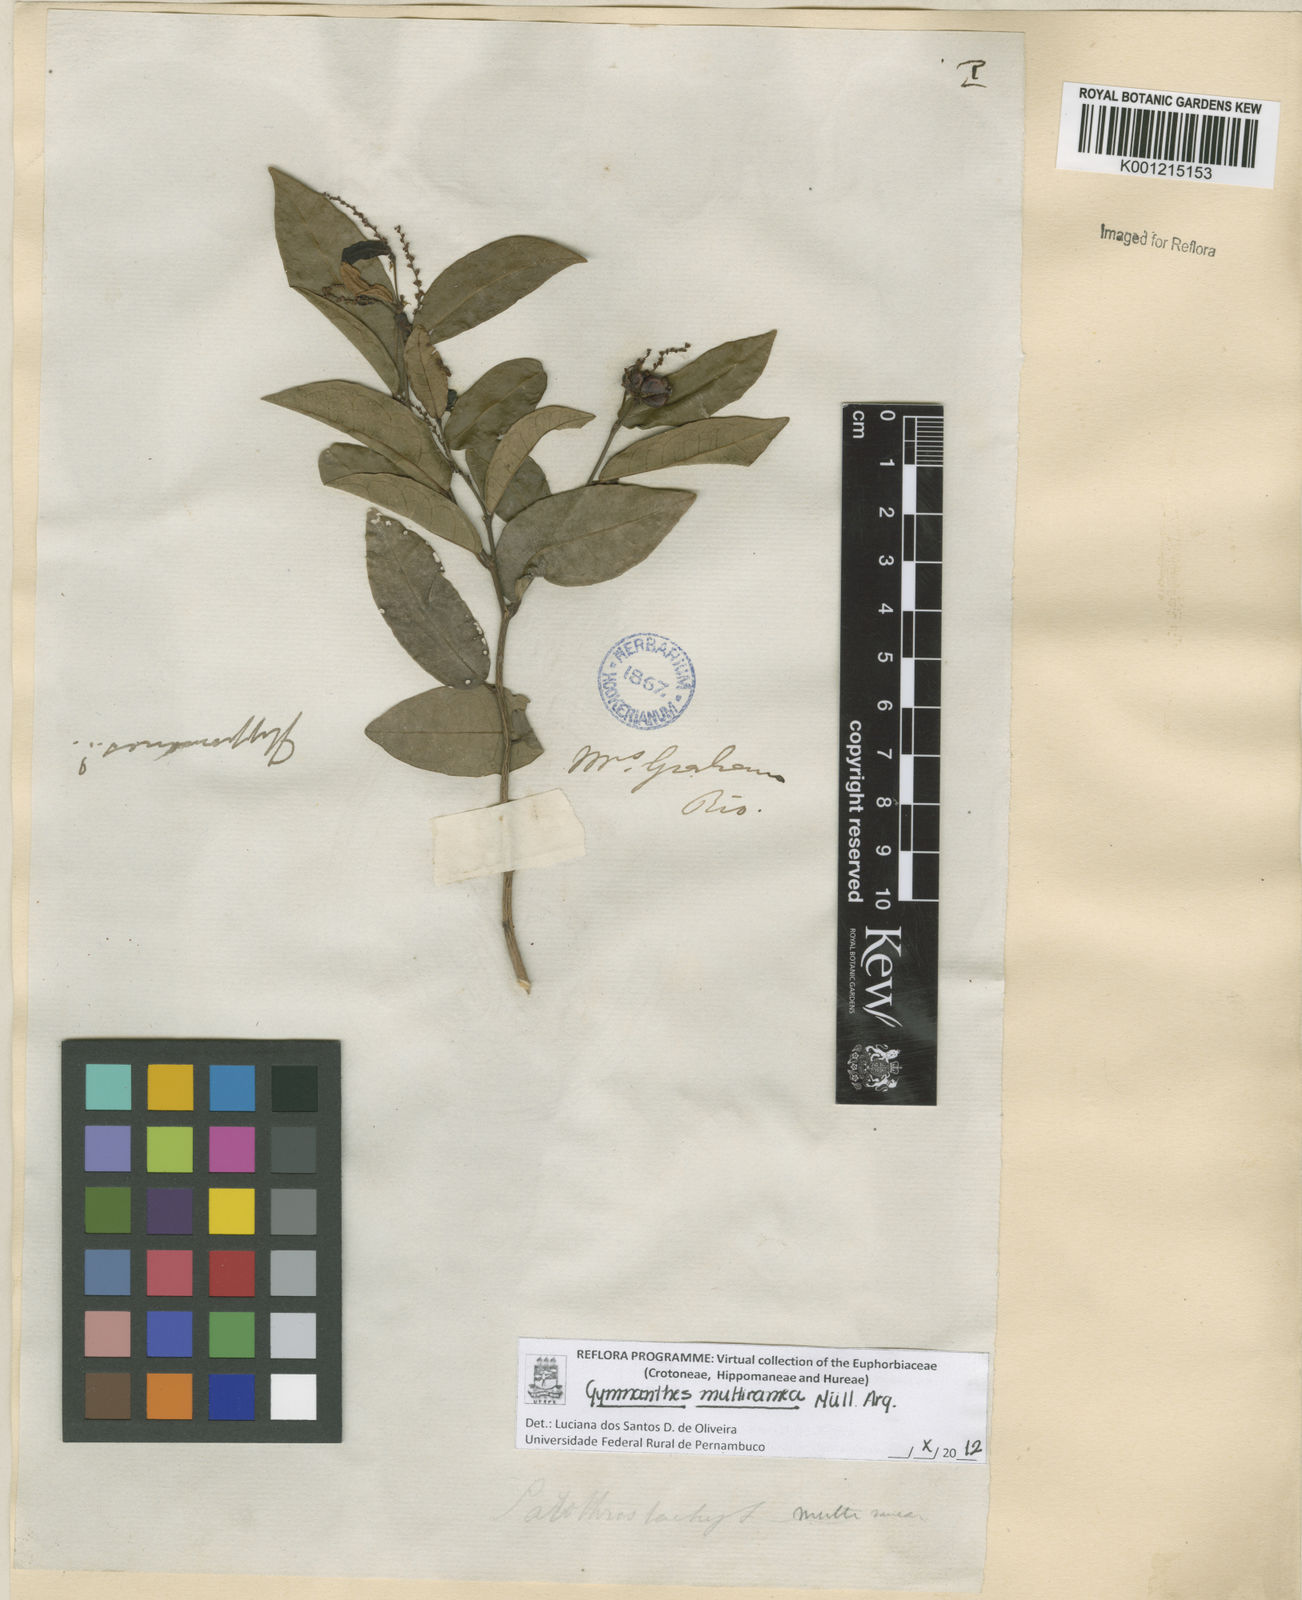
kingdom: Plantae
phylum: Tracheophyta
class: Magnoliopsida
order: Malpighiales
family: Euphorbiaceae
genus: Gymnanthes
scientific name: Gymnanthes
